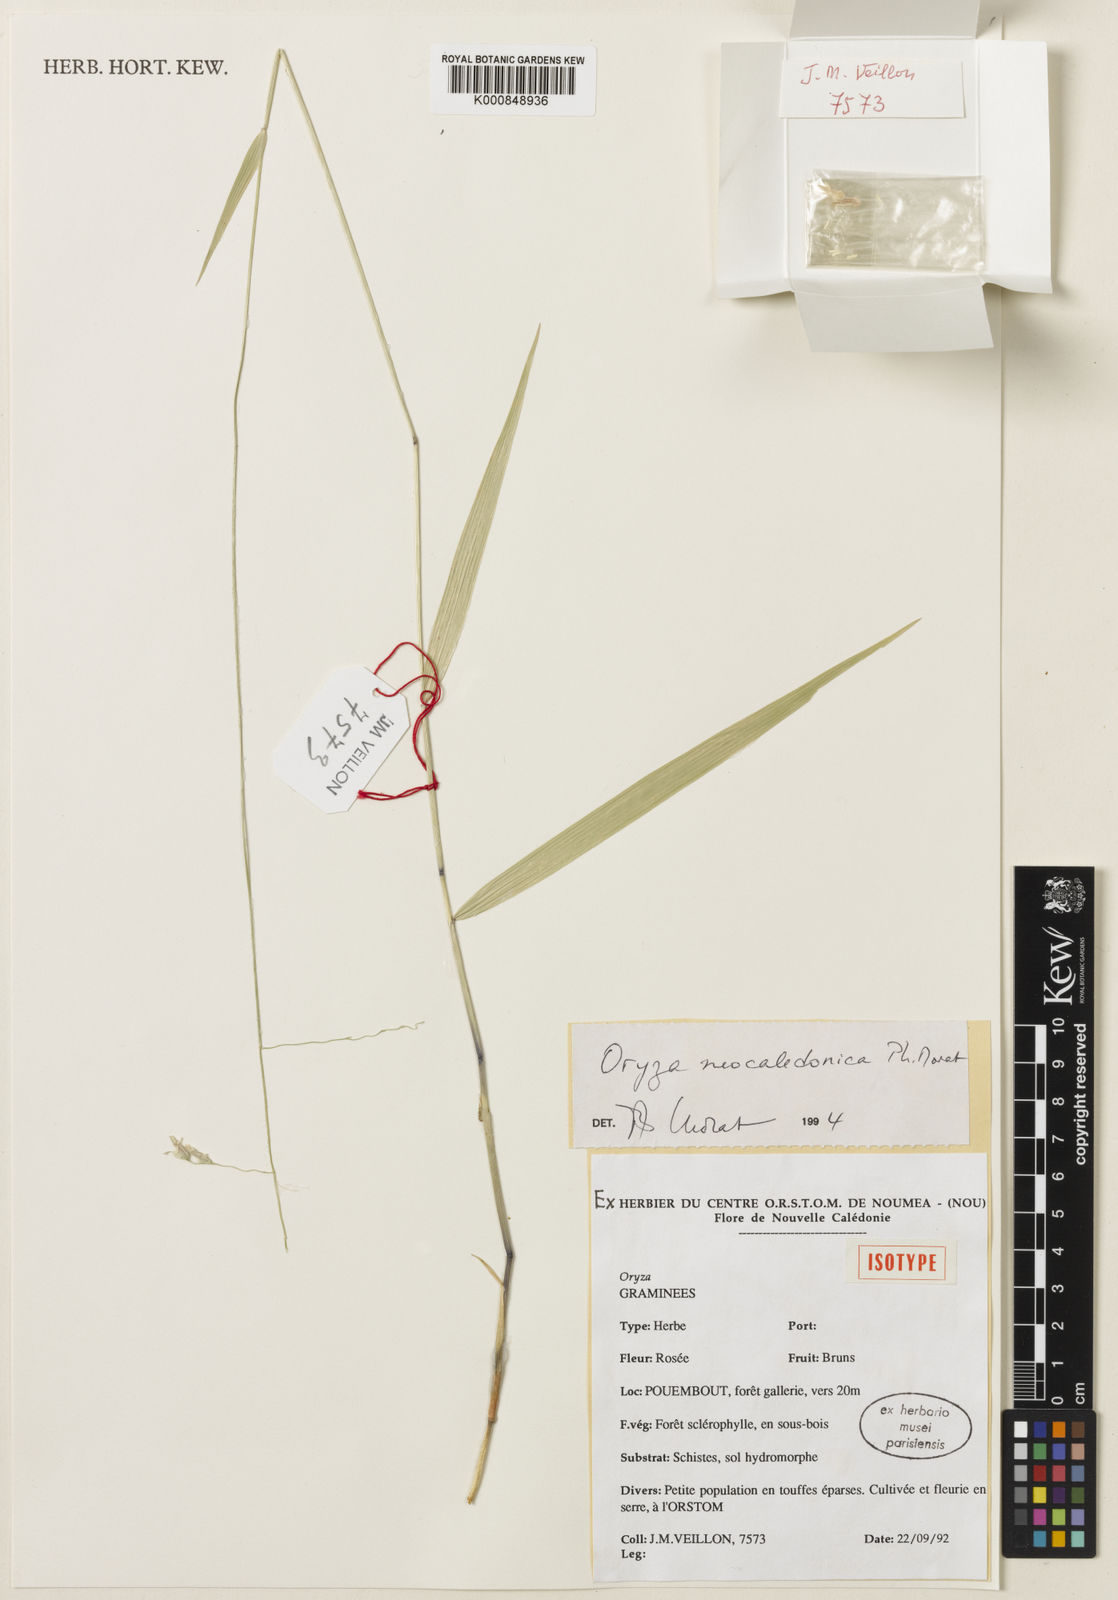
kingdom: Plantae
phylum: Tracheophyta
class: Liliopsida
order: Poales
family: Poaceae
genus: Oryza
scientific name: Oryza neocaledonica
